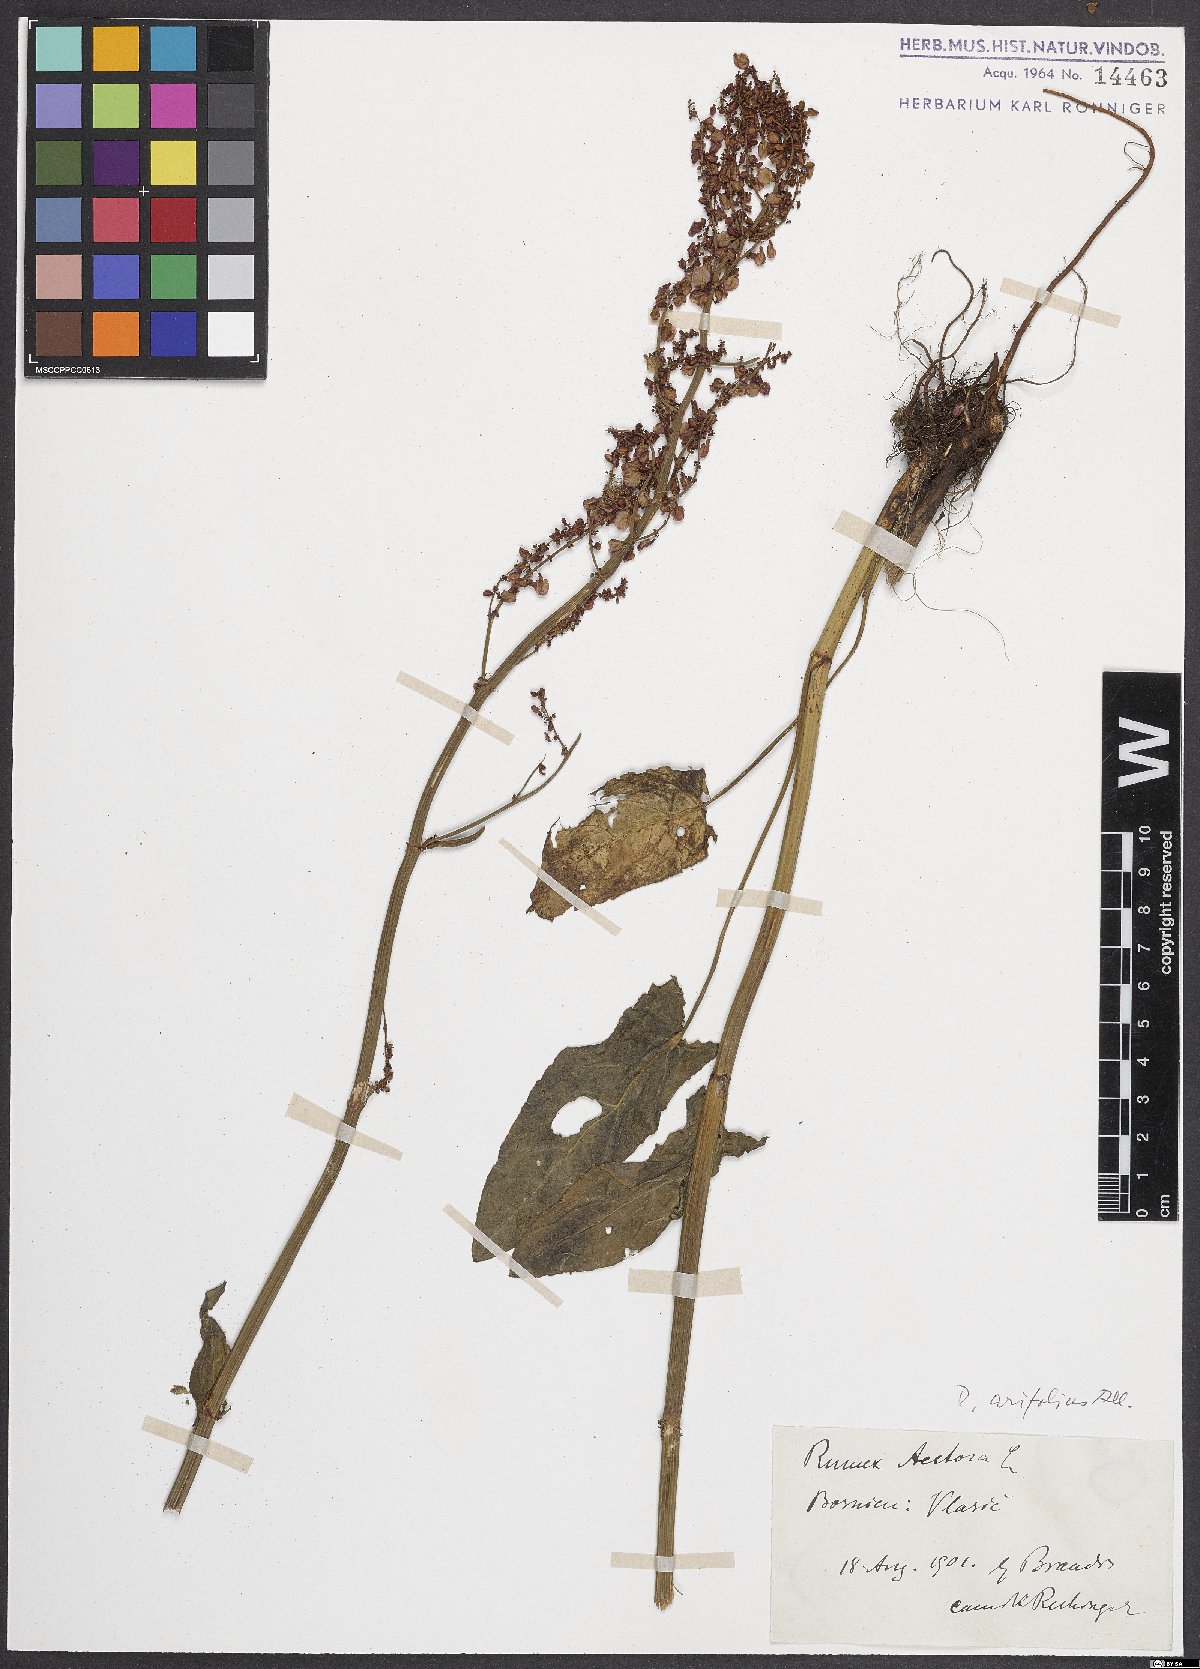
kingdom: Plantae
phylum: Tracheophyta
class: Magnoliopsida
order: Caryophyllales
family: Polygonaceae
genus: Rumex
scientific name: Rumex arifolius
